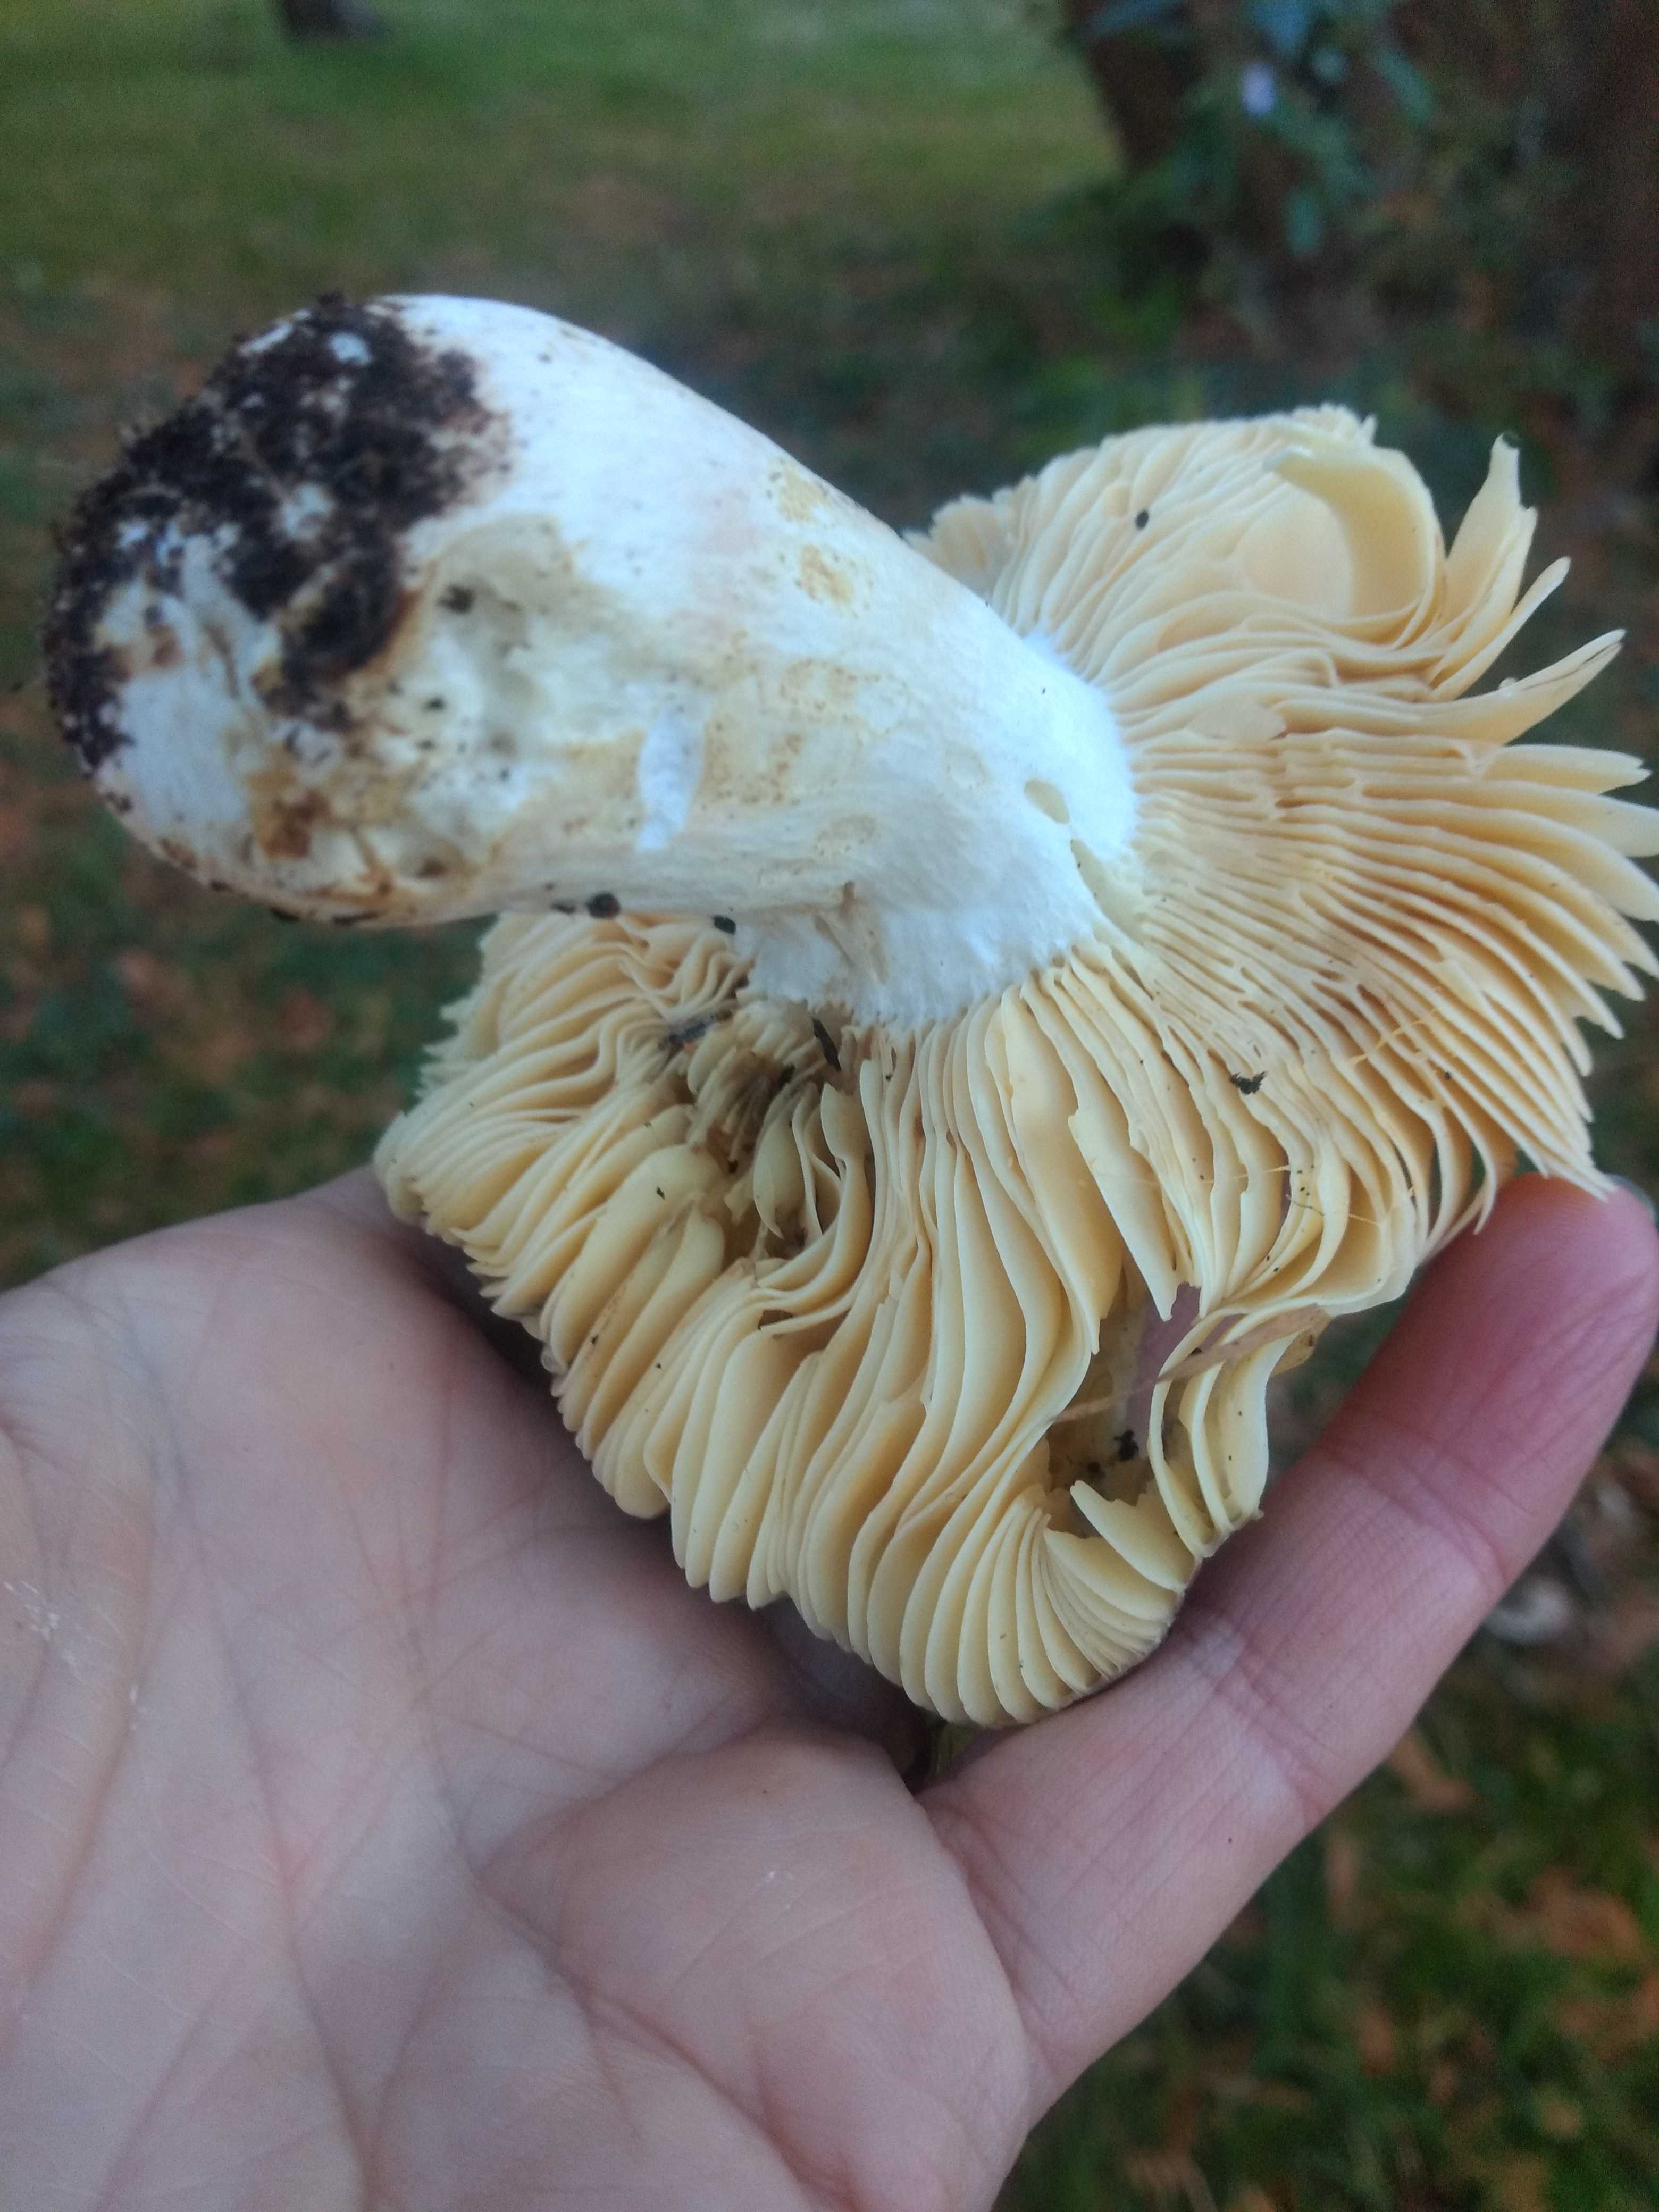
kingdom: Fungi
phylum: Basidiomycota
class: Agaricomycetes
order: Russulales
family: Russulaceae
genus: Russula
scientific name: Russula integra
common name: mandel-skørhat
